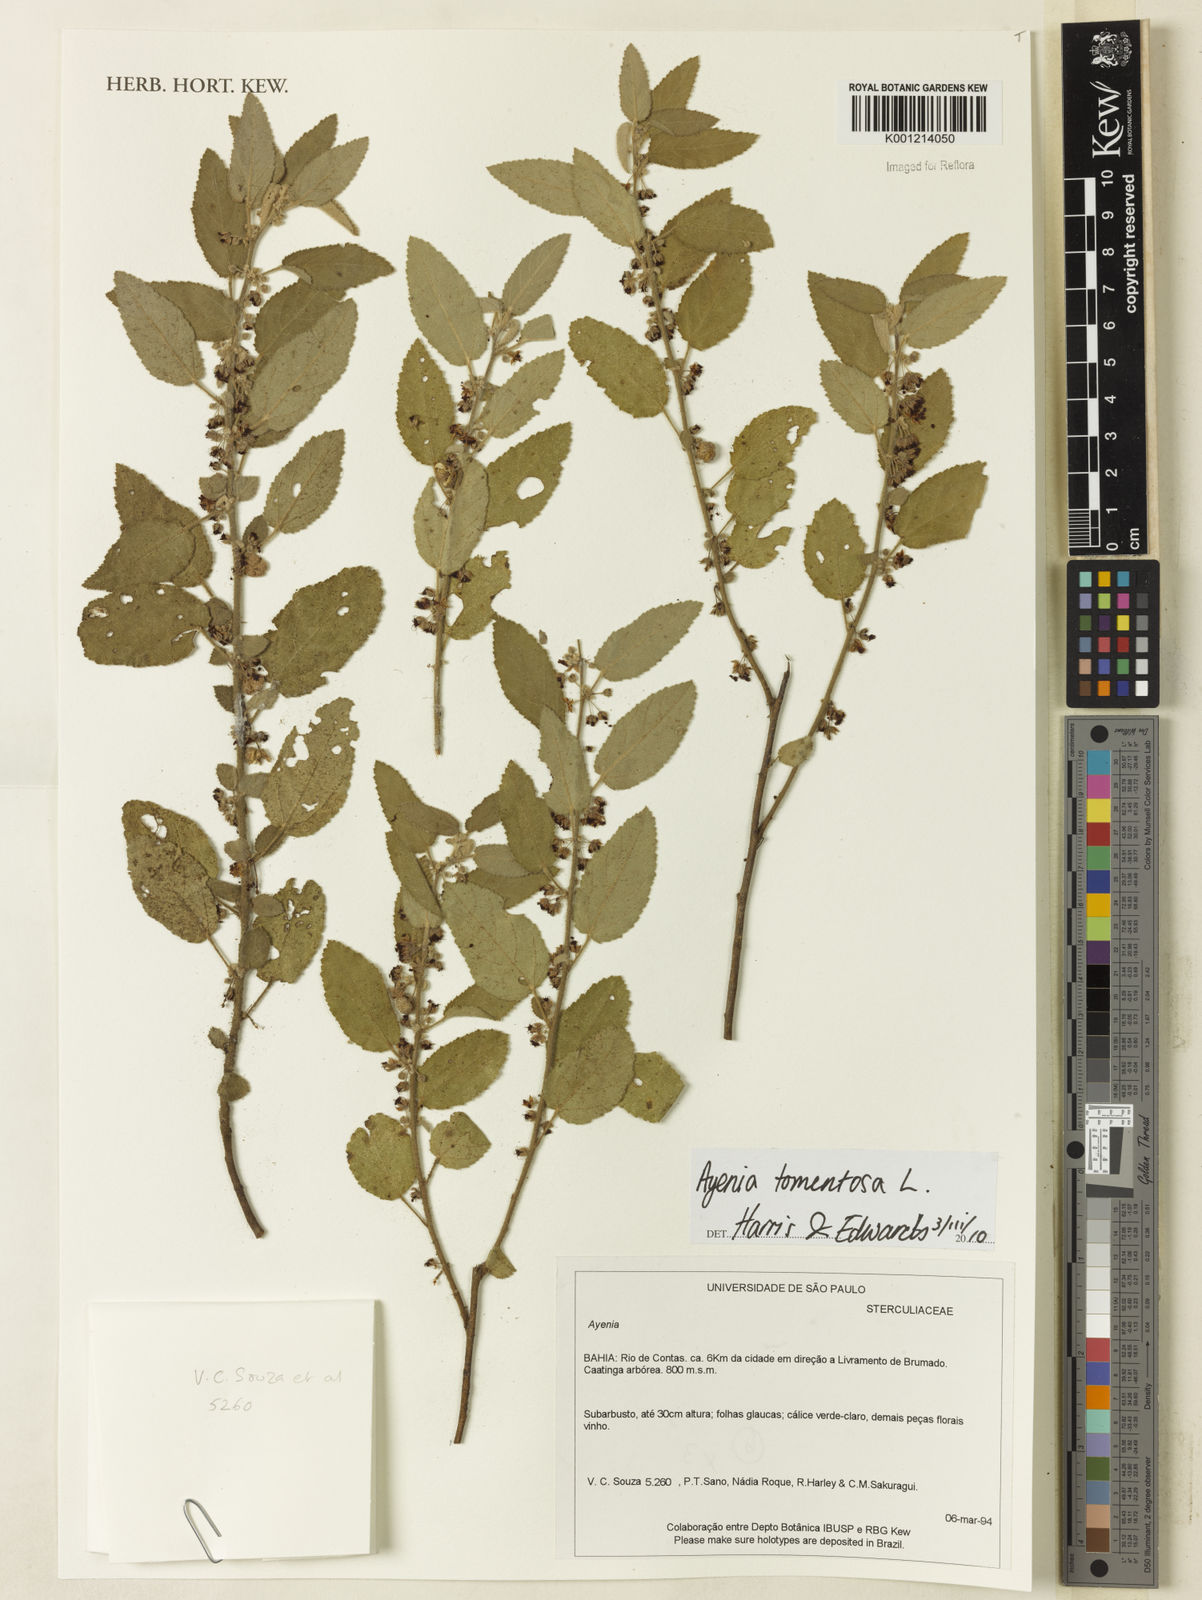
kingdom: Plantae
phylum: Tracheophyta
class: Magnoliopsida
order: Malvales
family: Malvaceae
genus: Ayenia
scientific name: Ayenia tomentosa
